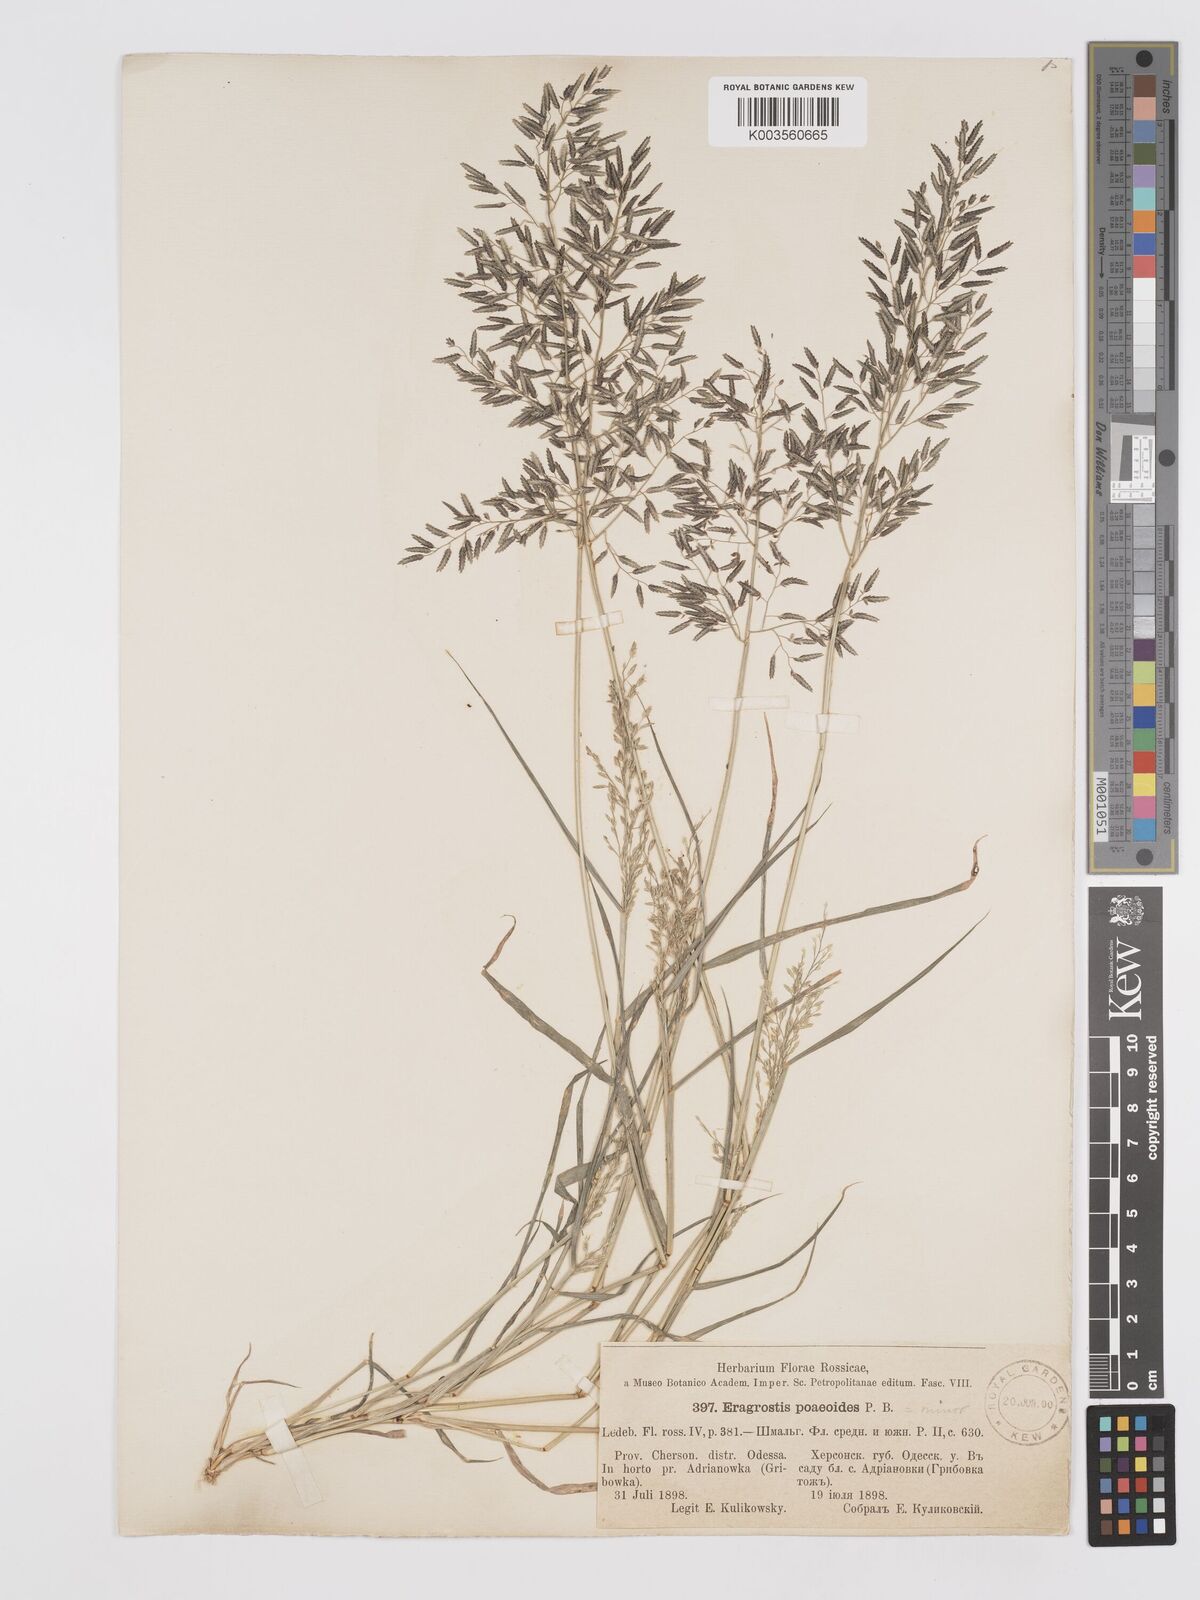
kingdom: Plantae
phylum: Tracheophyta
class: Liliopsida
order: Poales
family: Poaceae
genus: Eragrostis
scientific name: Eragrostis minor
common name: Small love-grass
